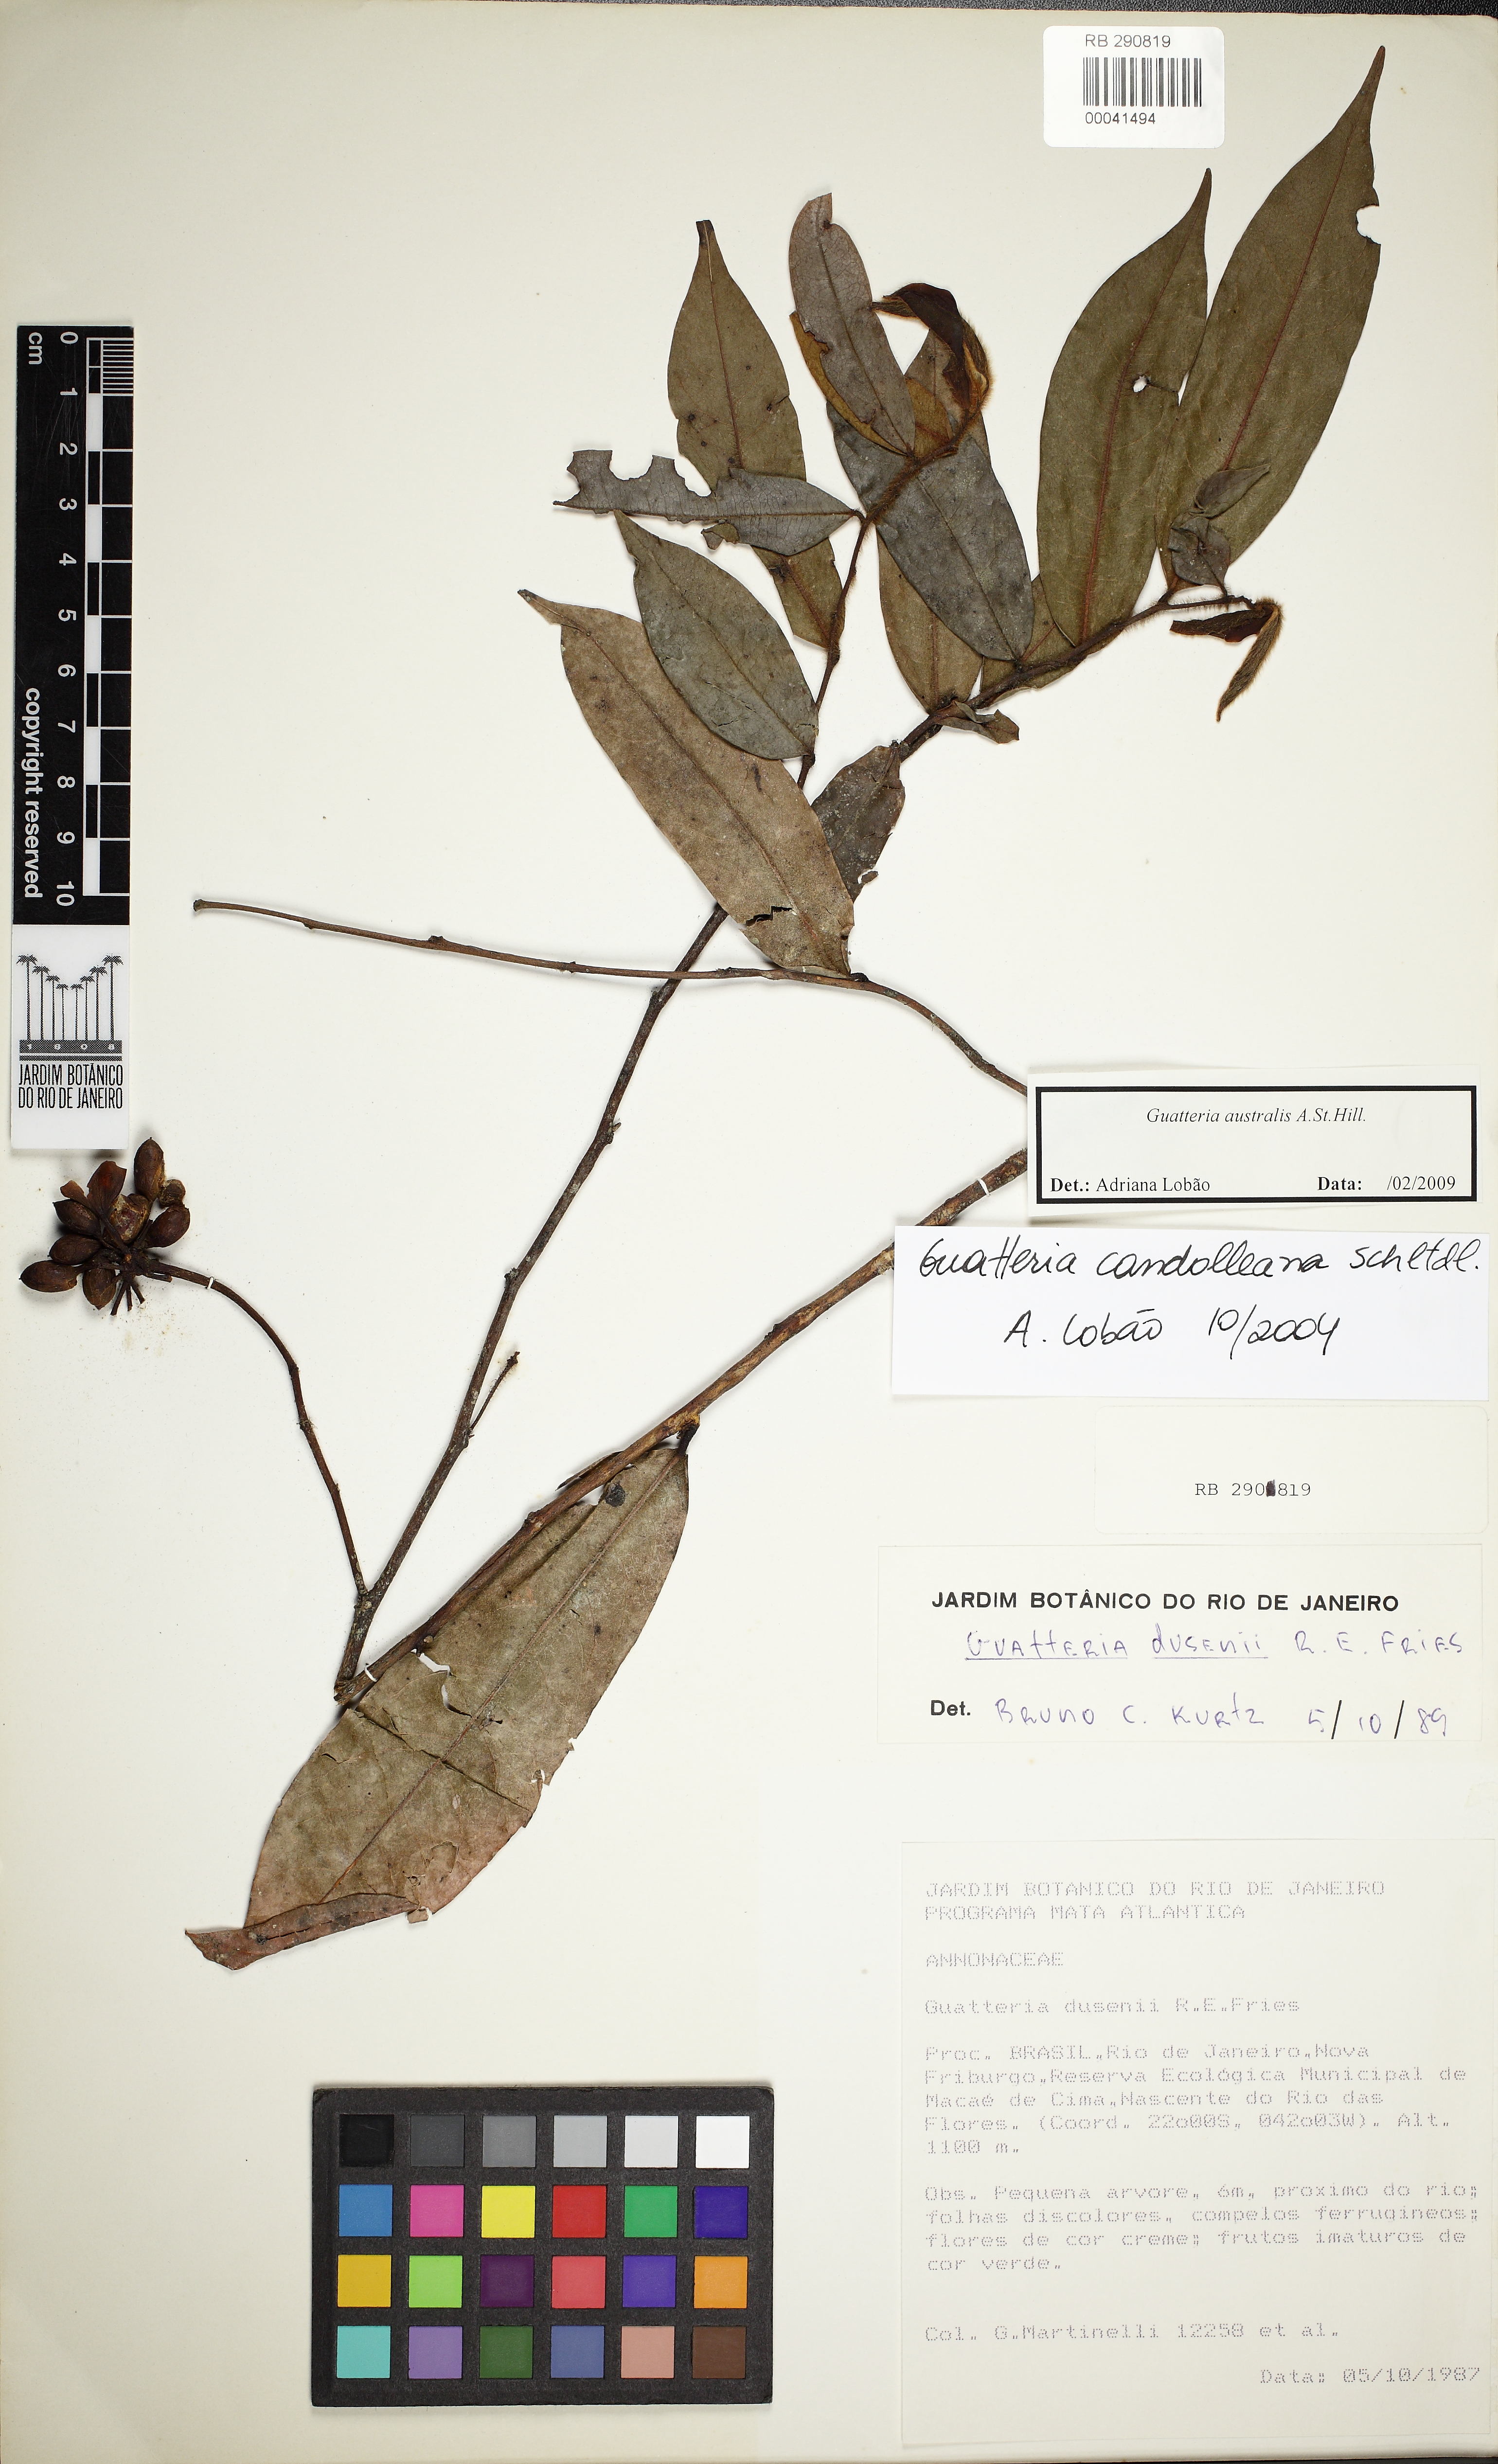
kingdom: Plantae
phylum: Tracheophyta
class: Magnoliopsida
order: Magnoliales
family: Annonaceae
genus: Guatteria
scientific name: Guatteria australis
